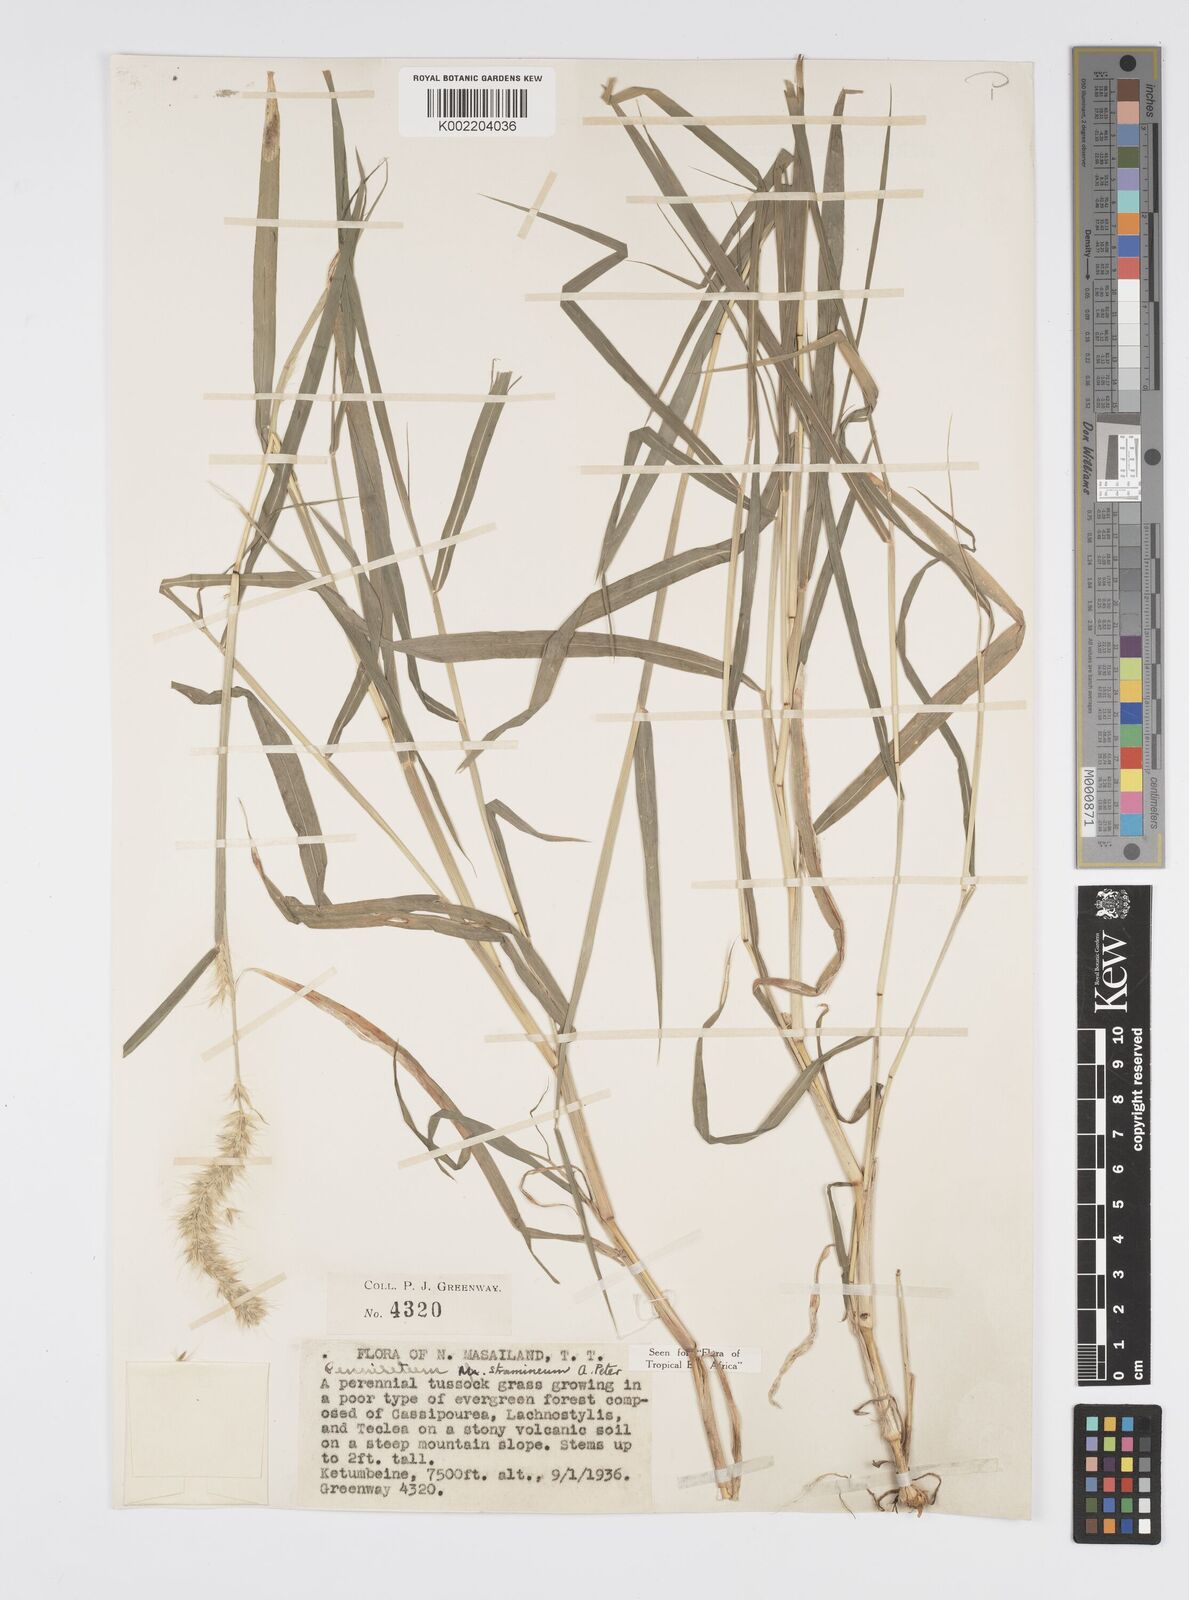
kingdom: Plantae
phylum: Tracheophyta
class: Liliopsida
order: Poales
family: Poaceae
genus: Cenchrus
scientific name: Cenchrus stramineus
